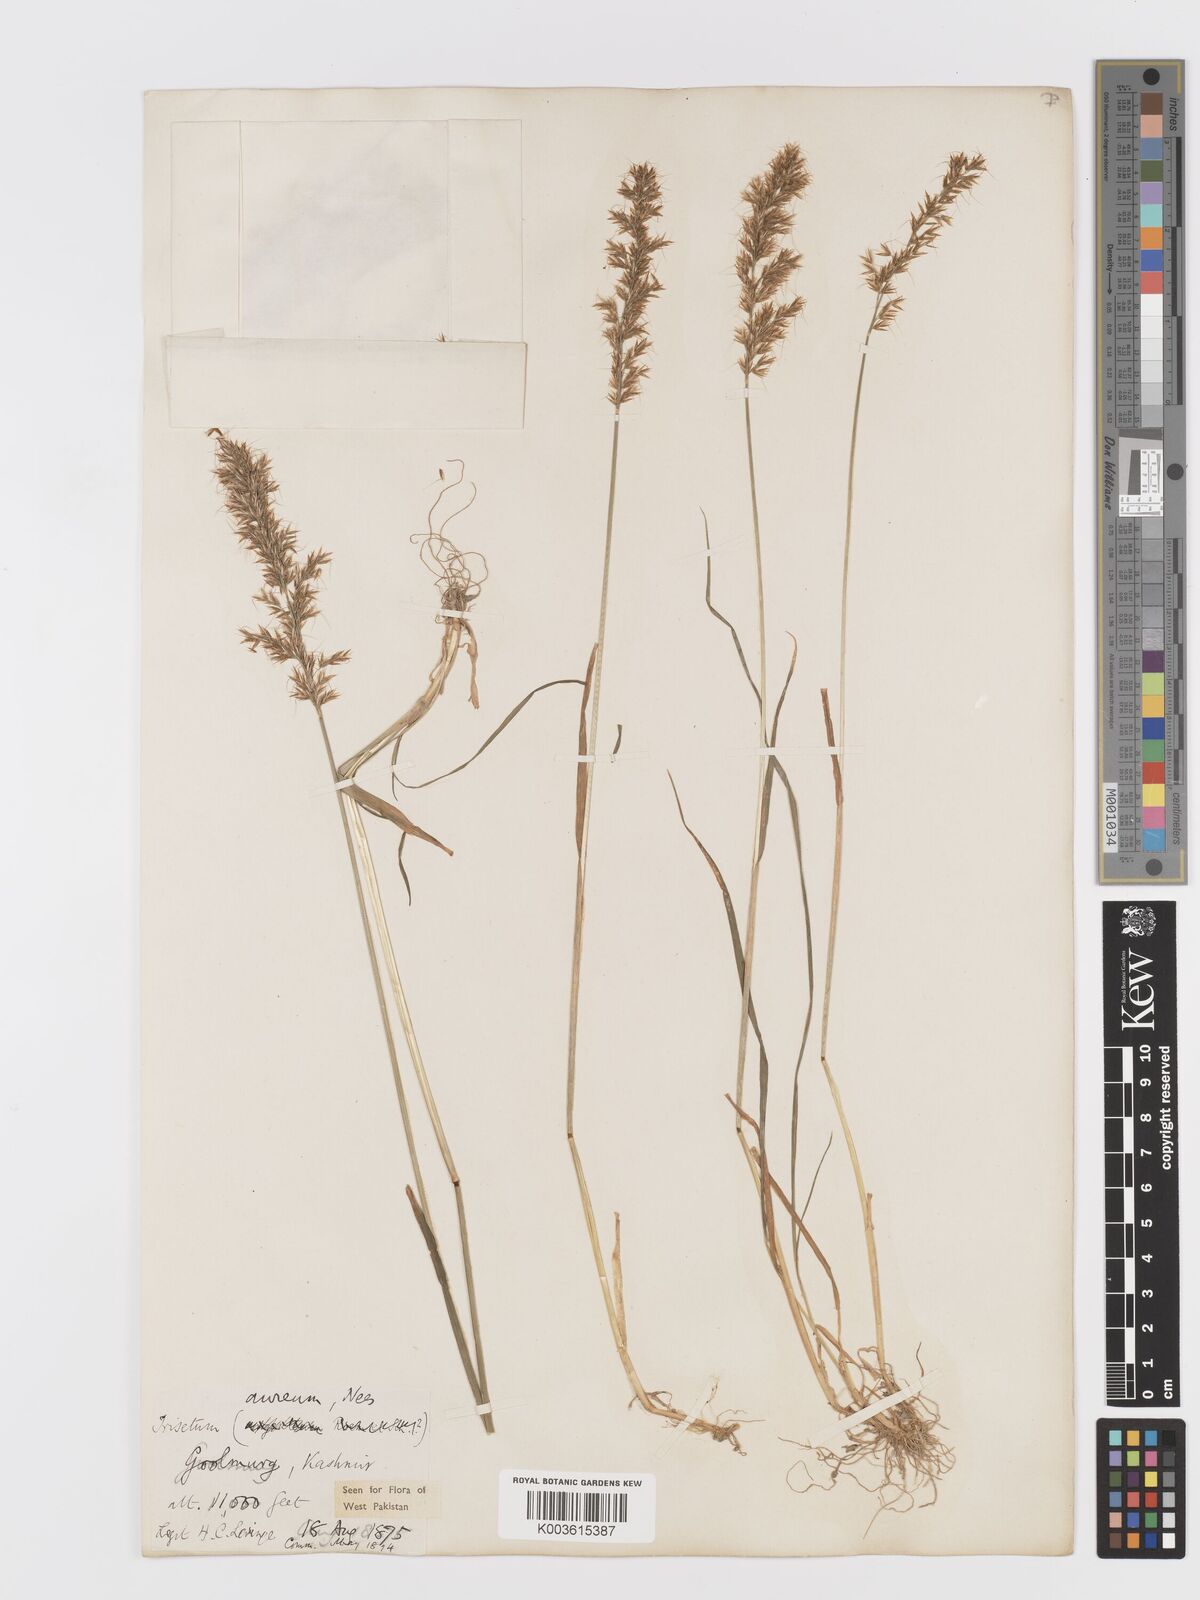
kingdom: Plantae
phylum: Tracheophyta
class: Liliopsida
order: Poales
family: Poaceae
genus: Sibirotrisetum
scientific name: Sibirotrisetum aeneum
